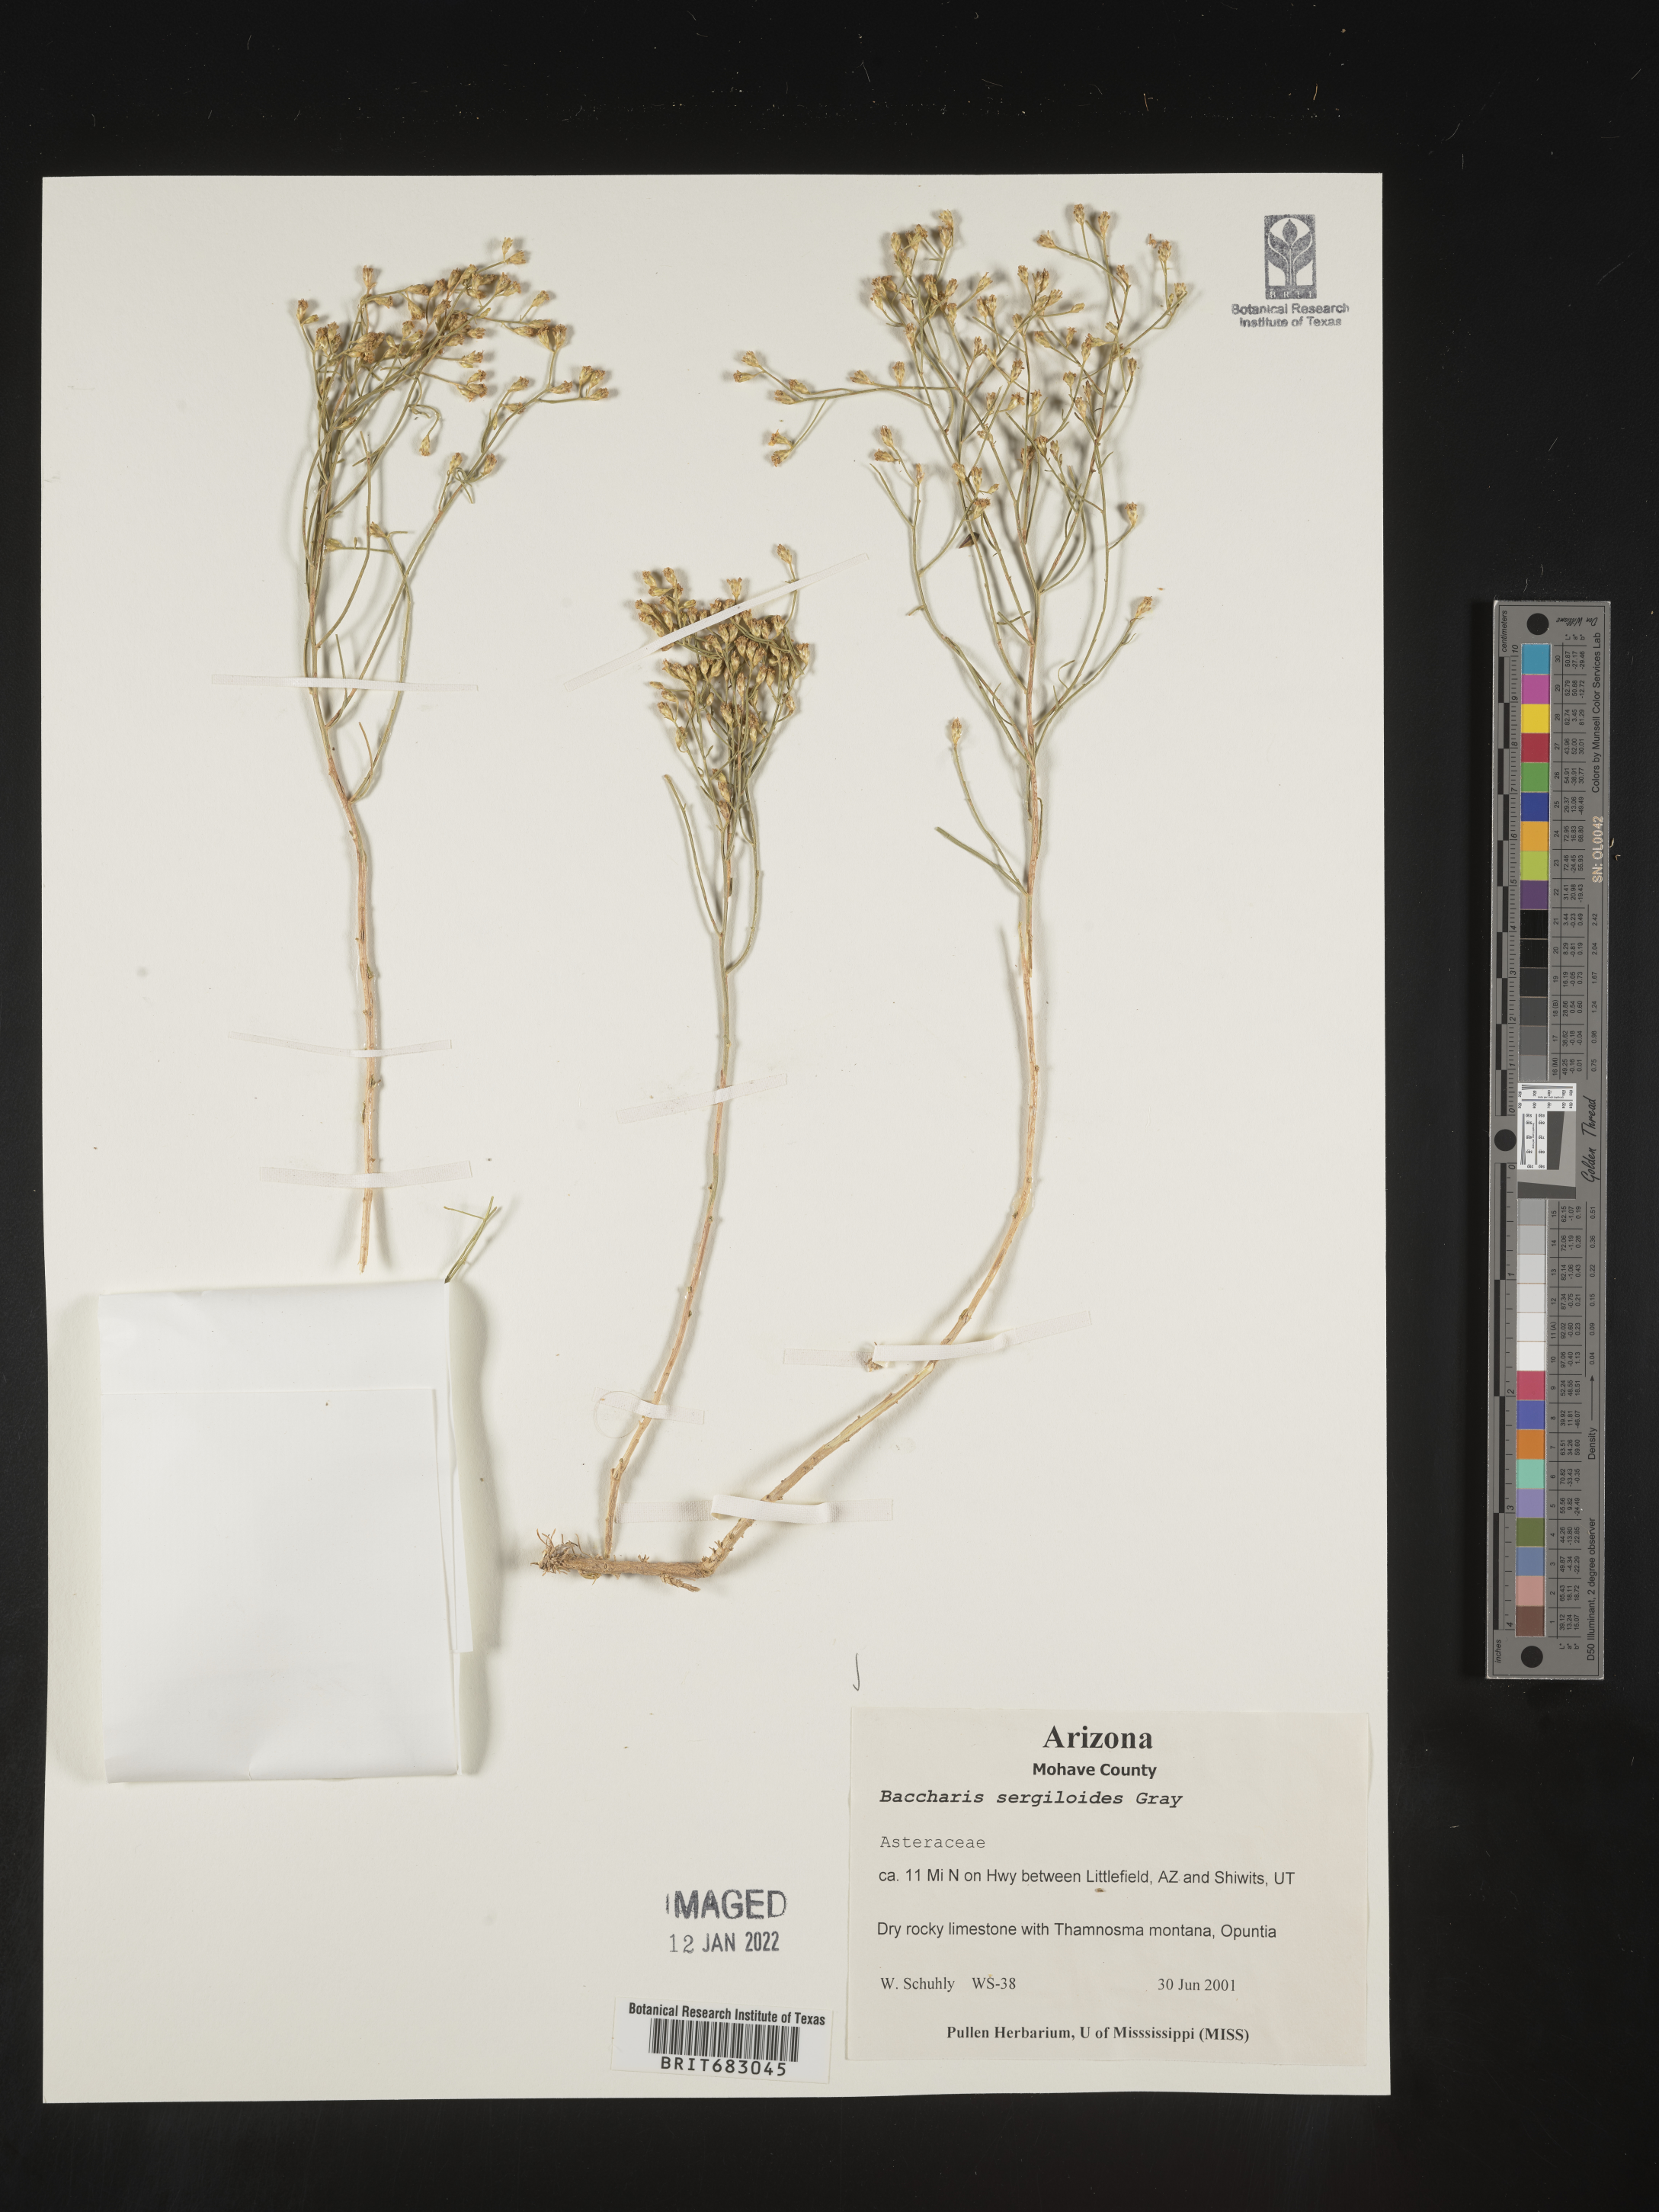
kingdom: Plantae
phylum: Tracheophyta
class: Magnoliopsida
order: Asterales
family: Asteraceae
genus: Baccharis
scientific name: Baccharis sergiloides
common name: Desert baccharis
